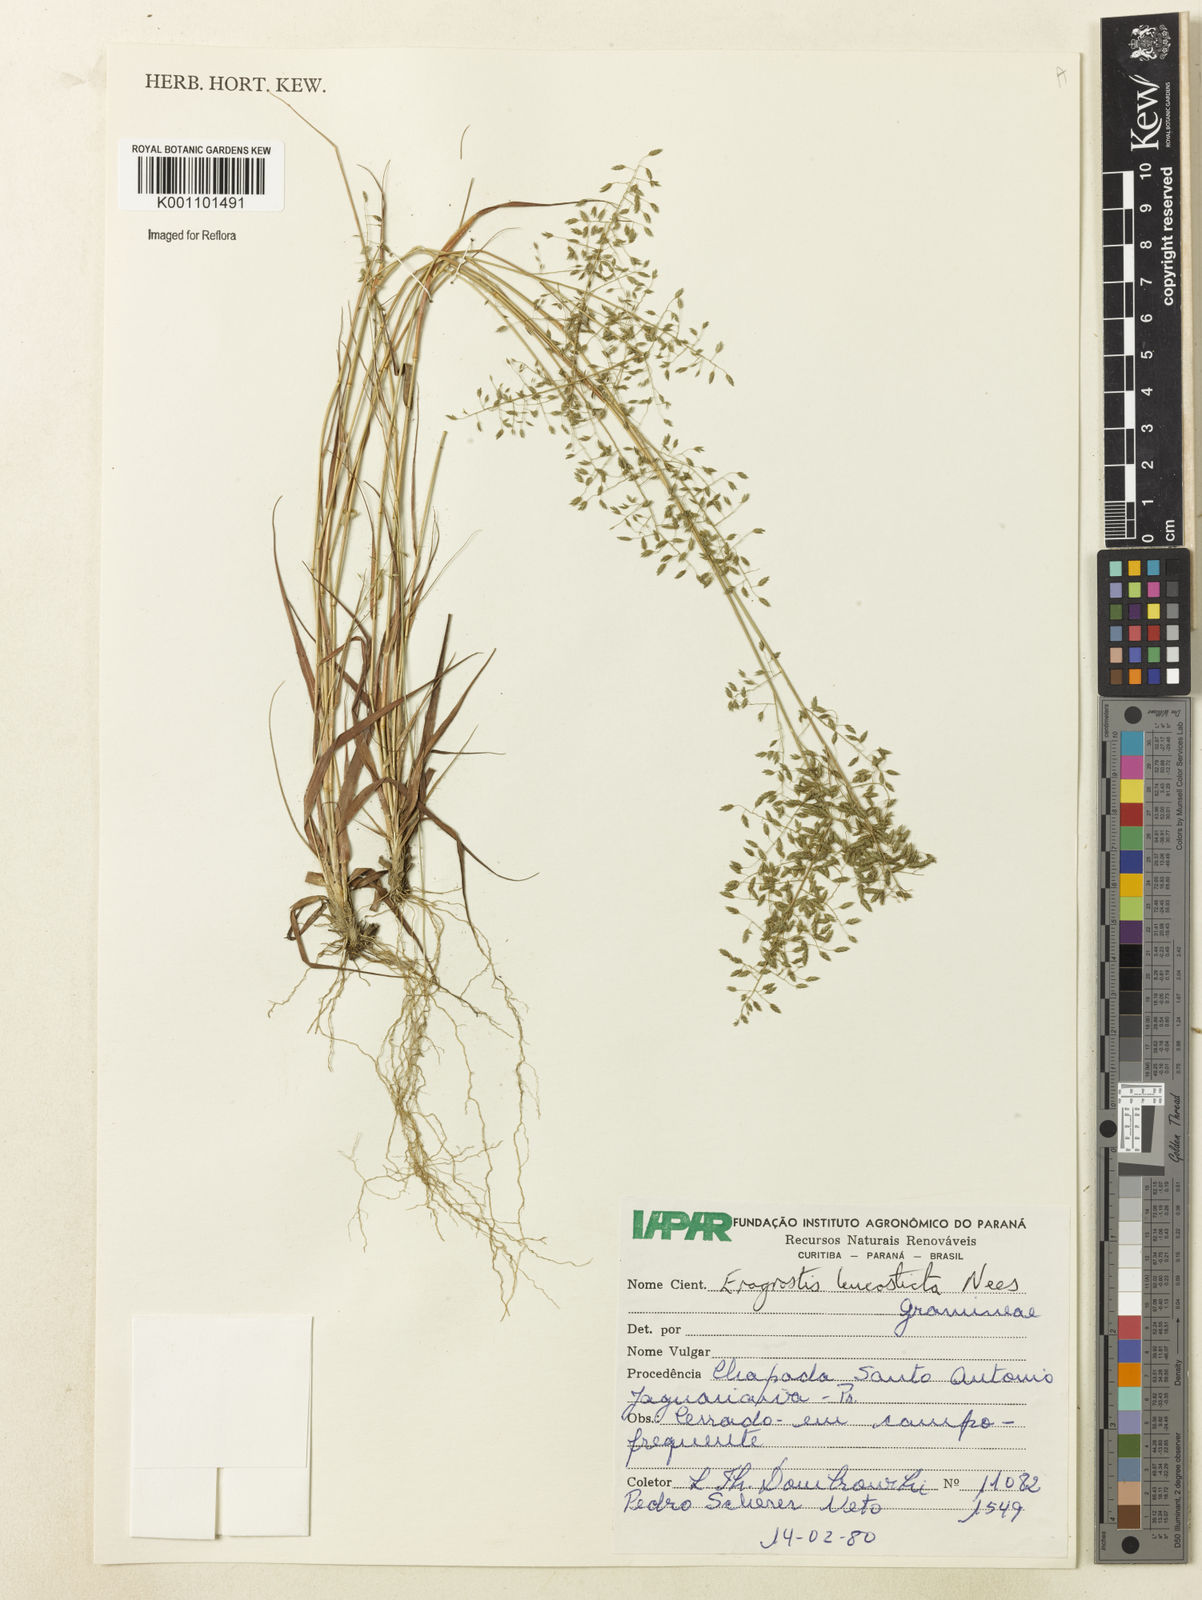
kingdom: Plantae
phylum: Tracheophyta
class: Liliopsida
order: Poales
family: Poaceae
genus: Eragrostis
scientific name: Eragrostis
